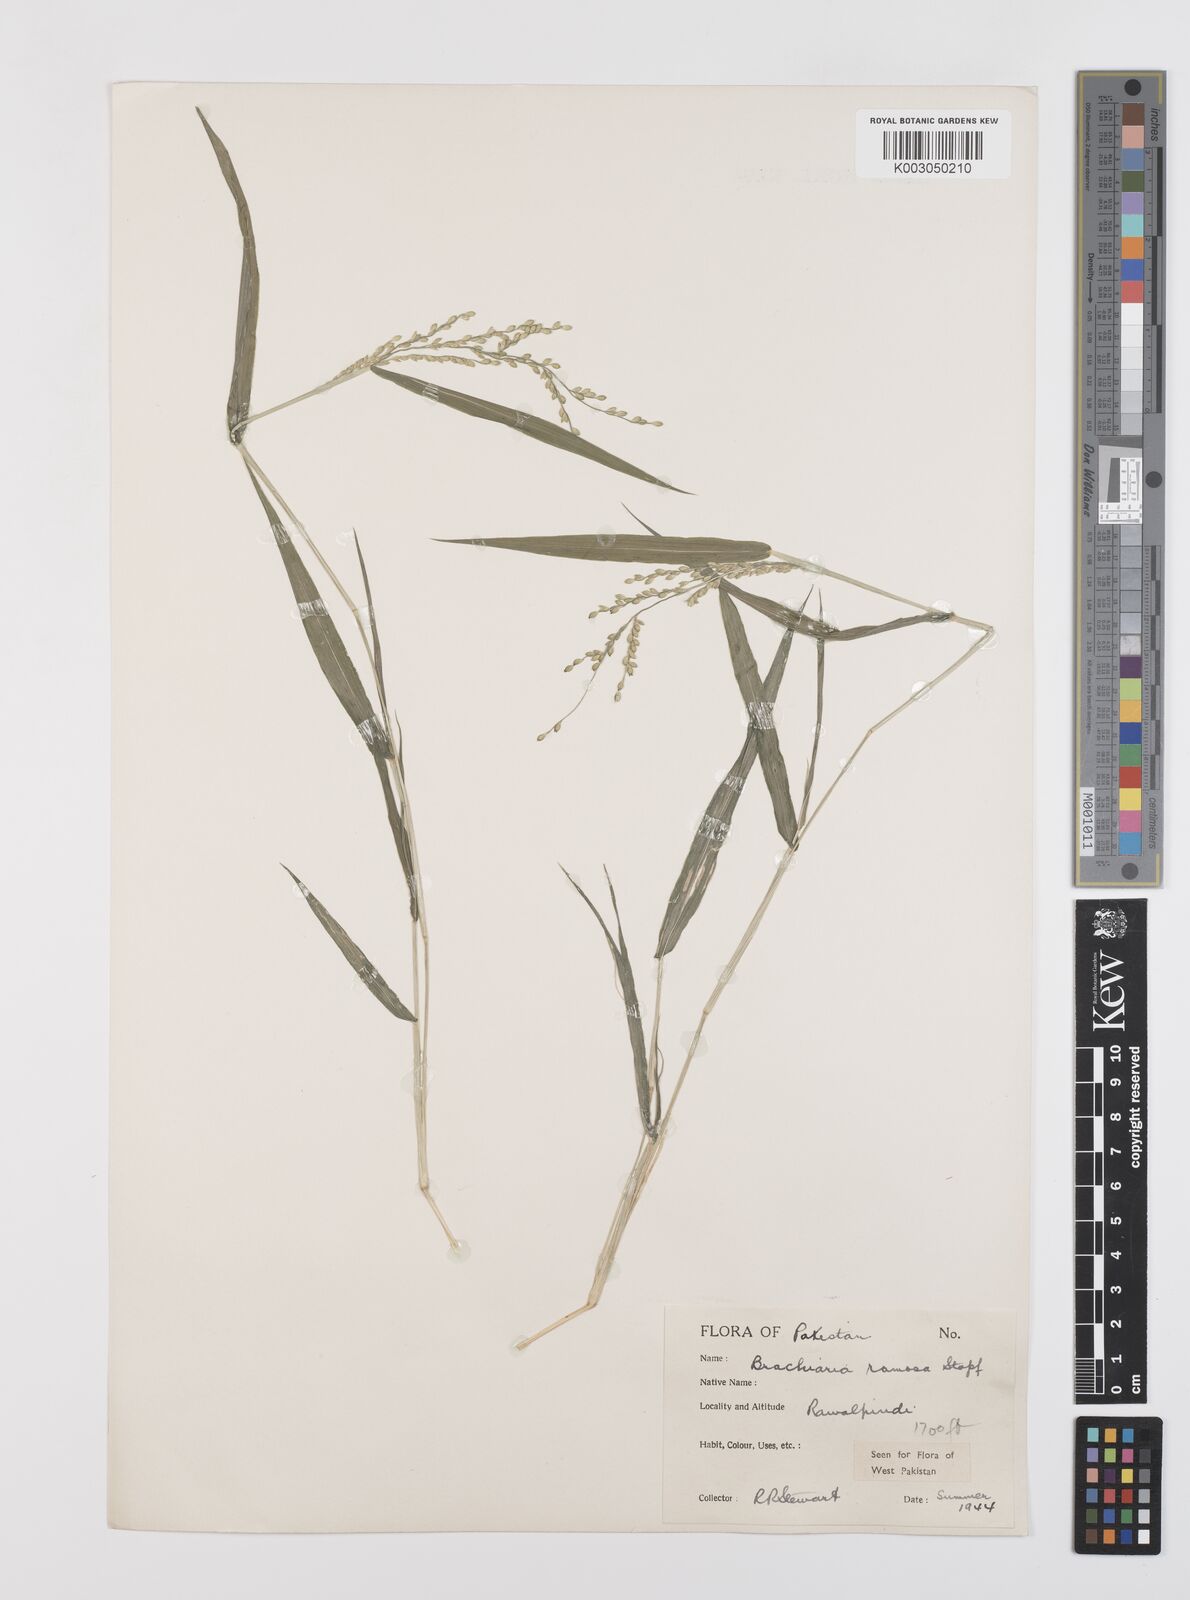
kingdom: Plantae
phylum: Tracheophyta
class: Liliopsida
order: Poales
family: Poaceae
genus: Urochloa
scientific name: Urochloa ramosa
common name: Browntop millet
